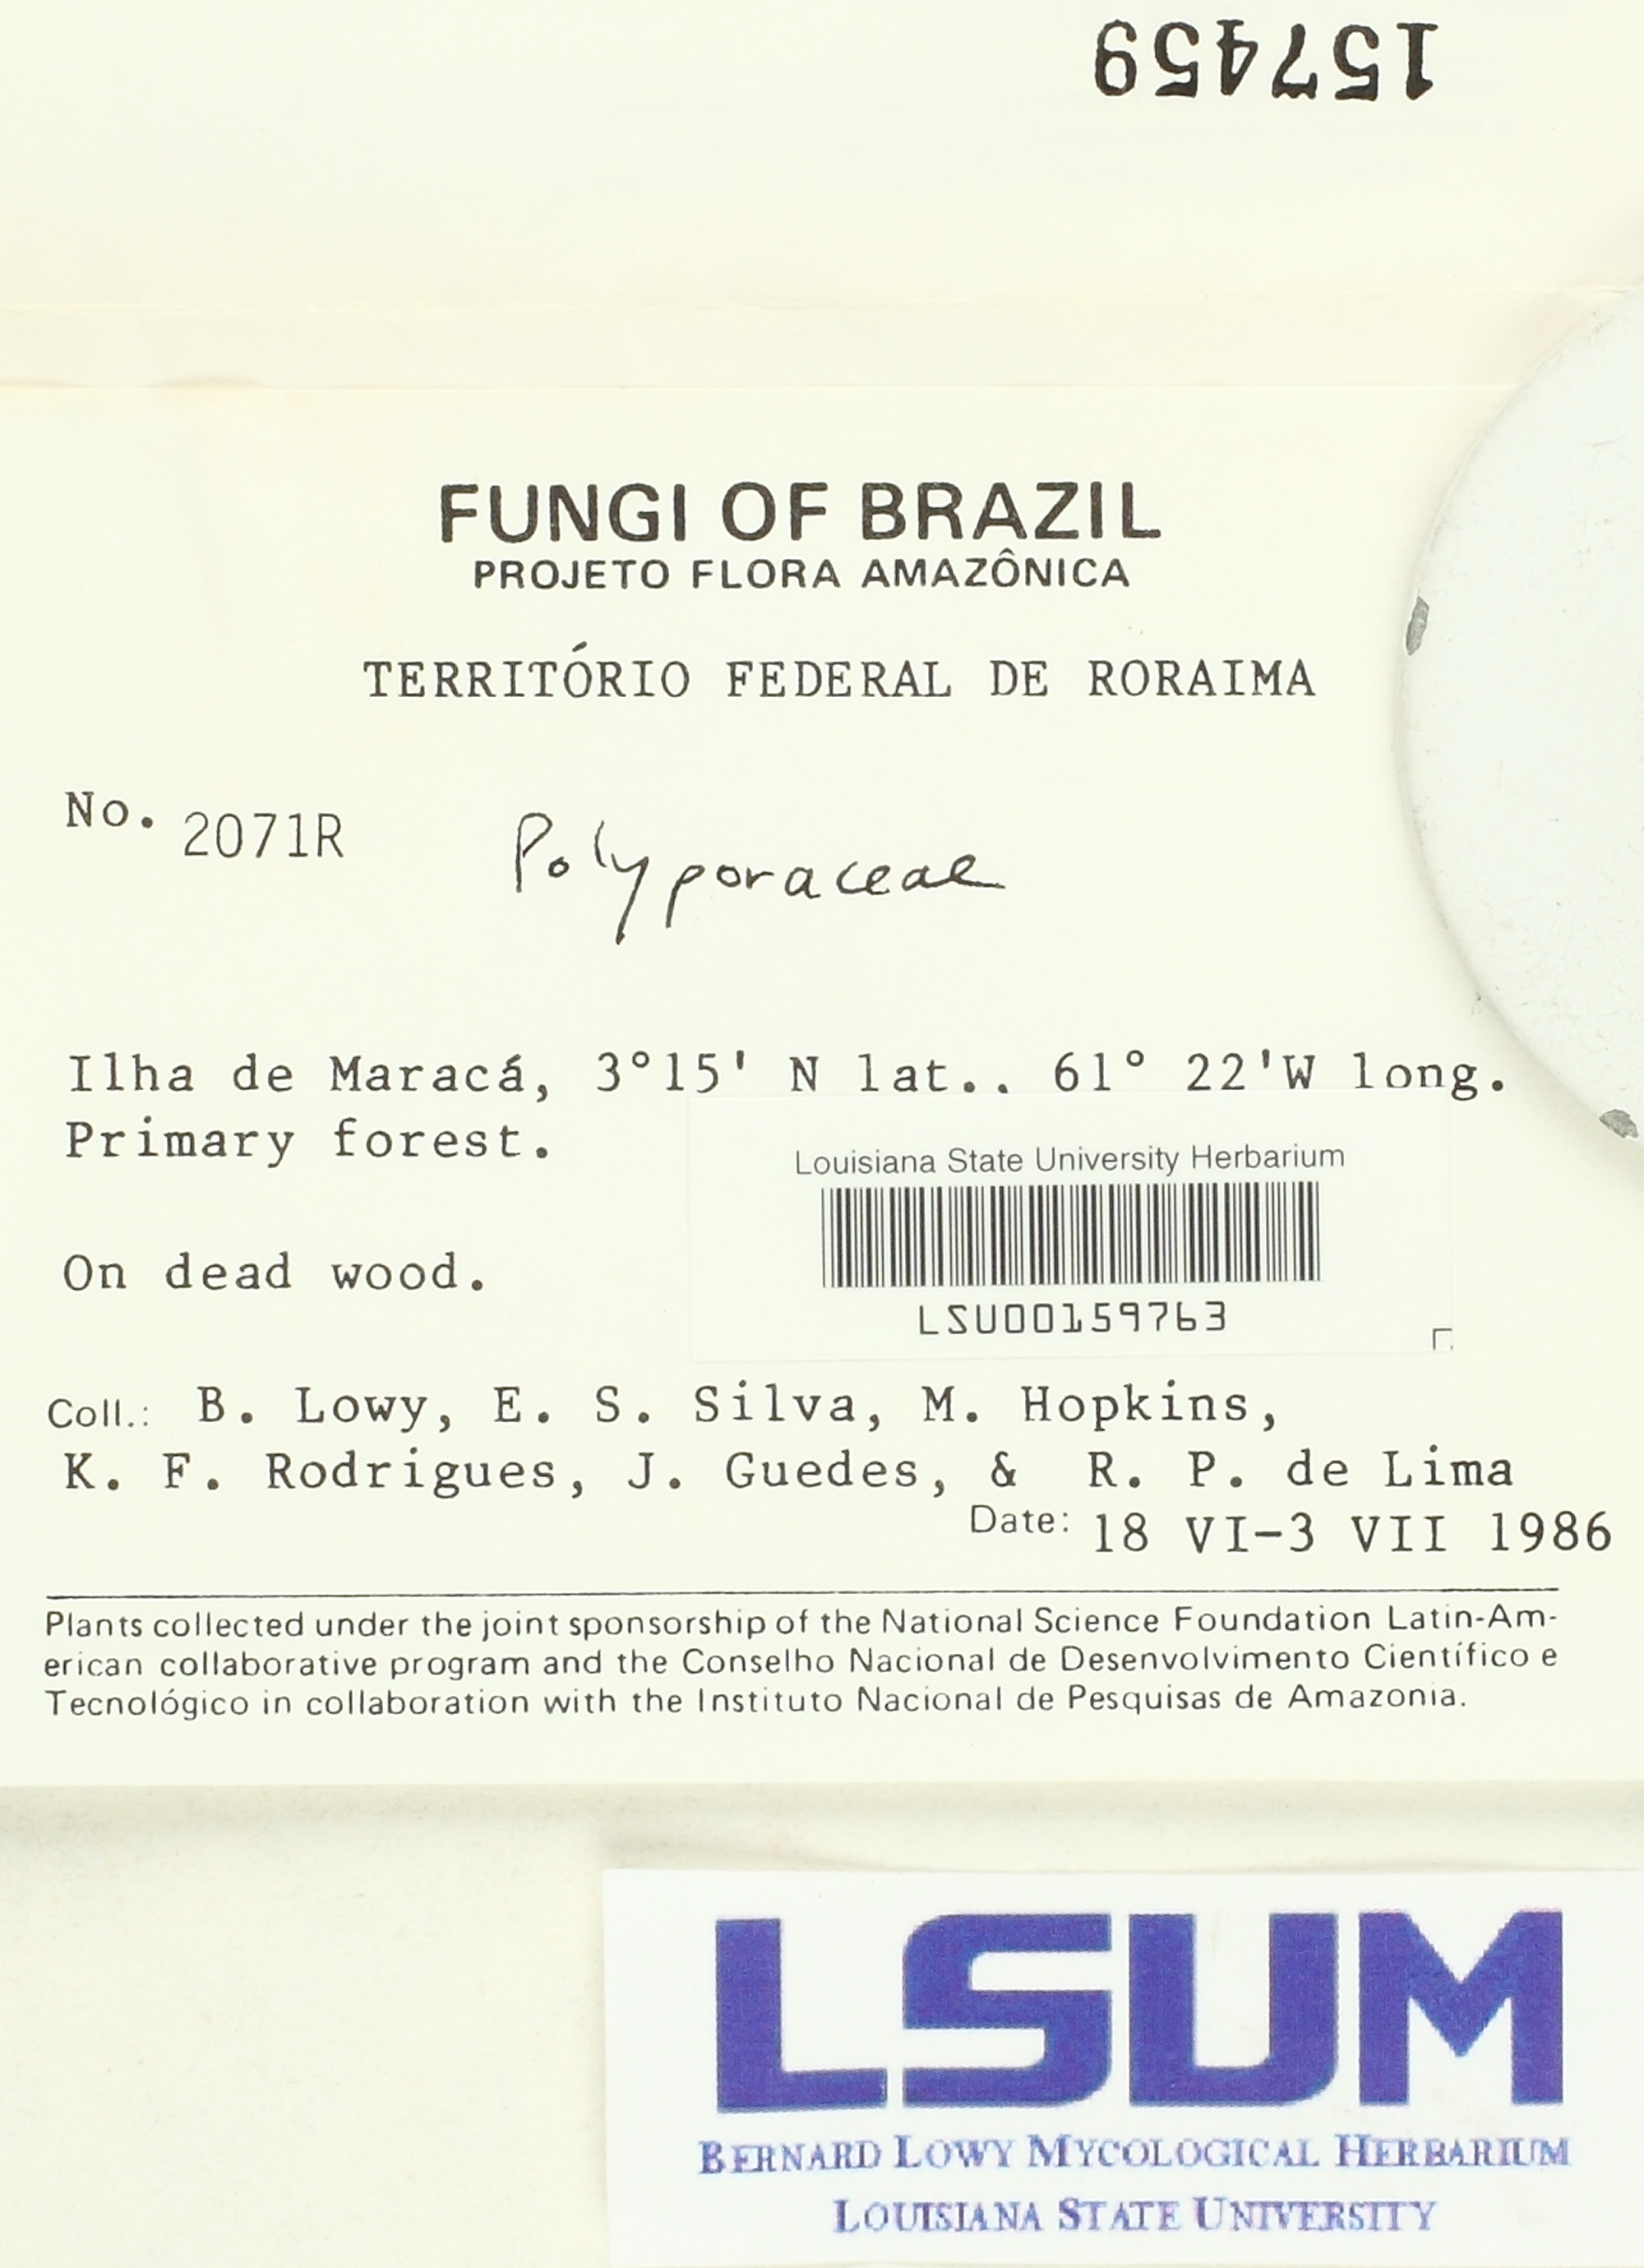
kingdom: Fungi
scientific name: Fungi
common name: Fungi
